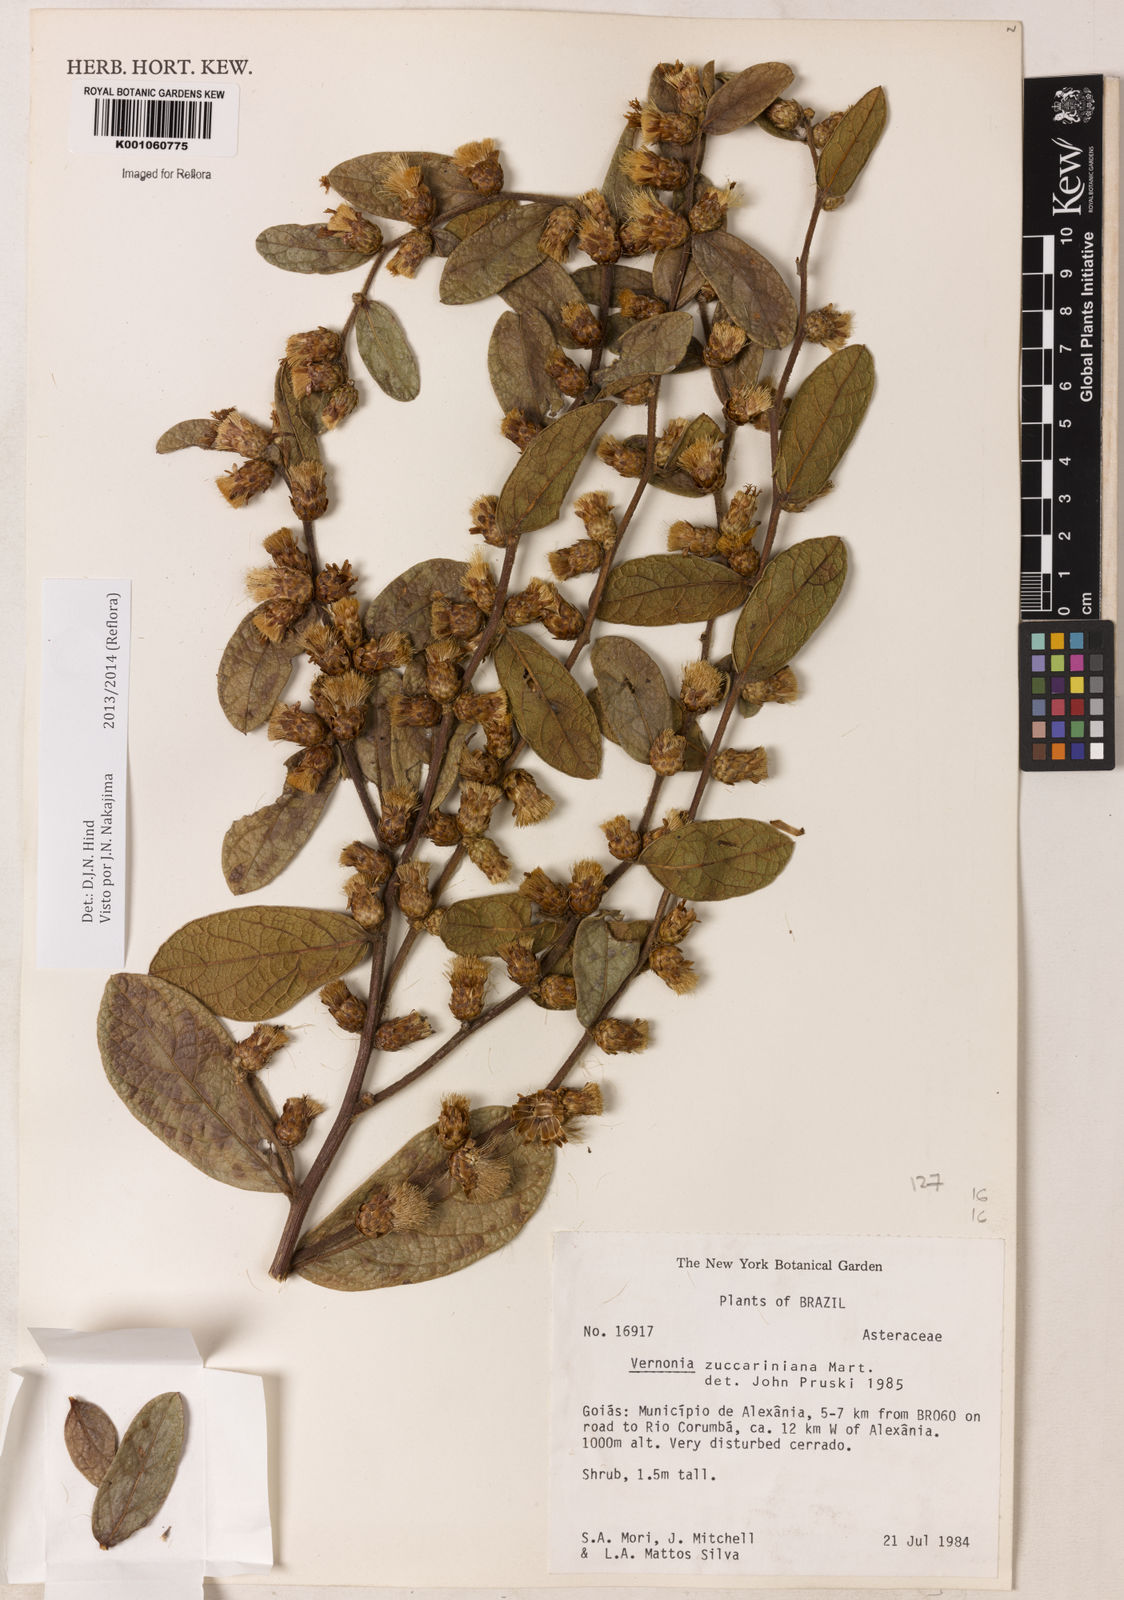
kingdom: Plantae
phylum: Tracheophyta
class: Magnoliopsida
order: Asterales
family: Asteraceae
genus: Lessingianthus
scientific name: Lessingianthus zuccarinianus
